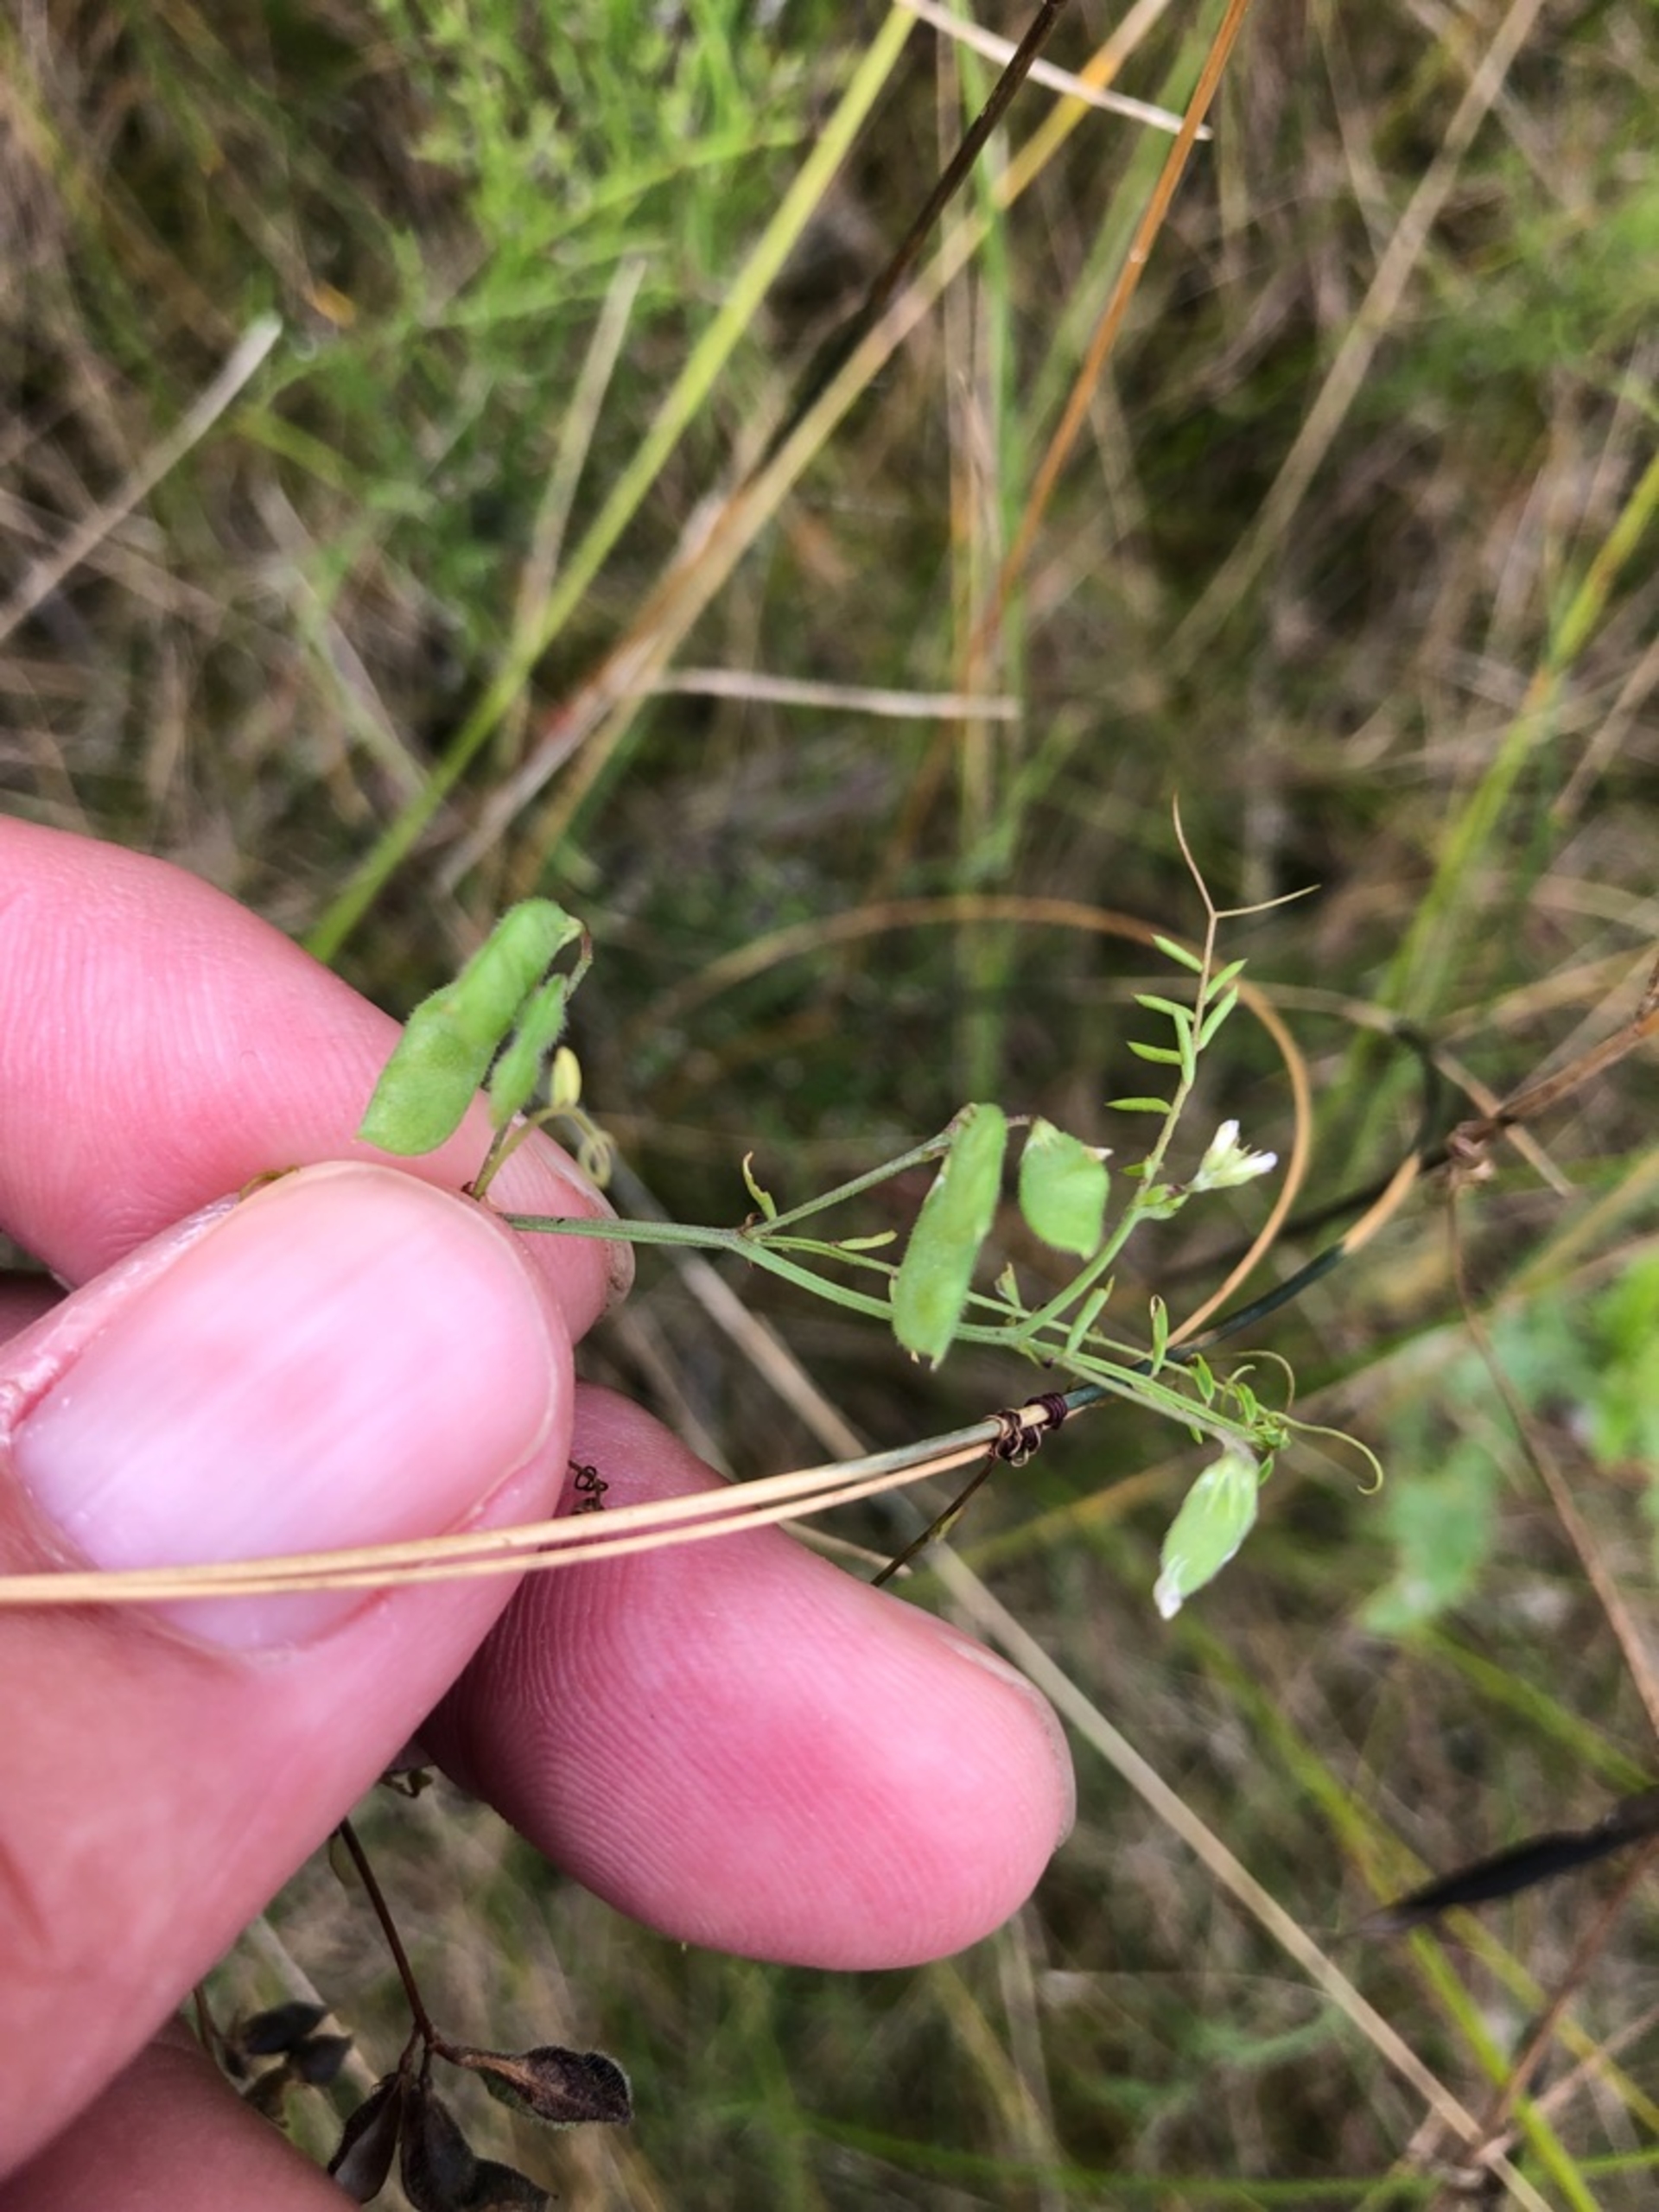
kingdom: Plantae
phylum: Tracheophyta
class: Magnoliopsida
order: Fabales
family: Fabaceae
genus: Vicia
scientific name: Vicia hirsuta
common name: Tofrøet vikke
